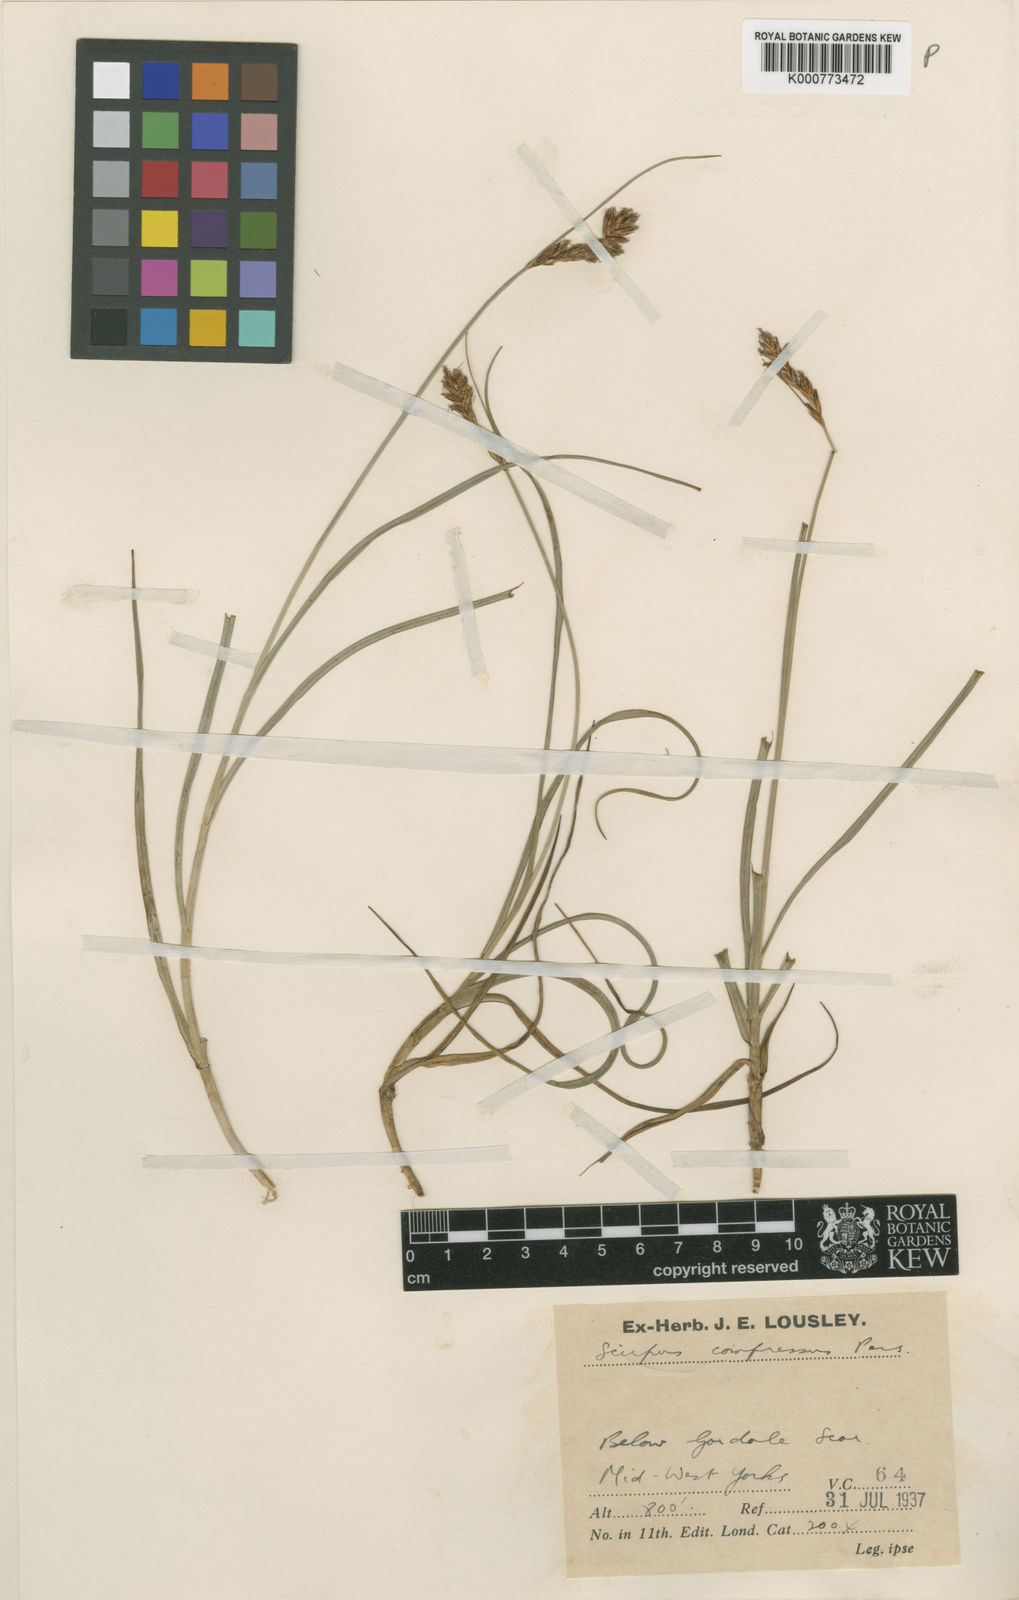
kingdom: Plantae
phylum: Tracheophyta
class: Liliopsida
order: Poales
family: Cyperaceae
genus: Blysmus
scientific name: Blysmus compressus
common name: Flat-sedge
